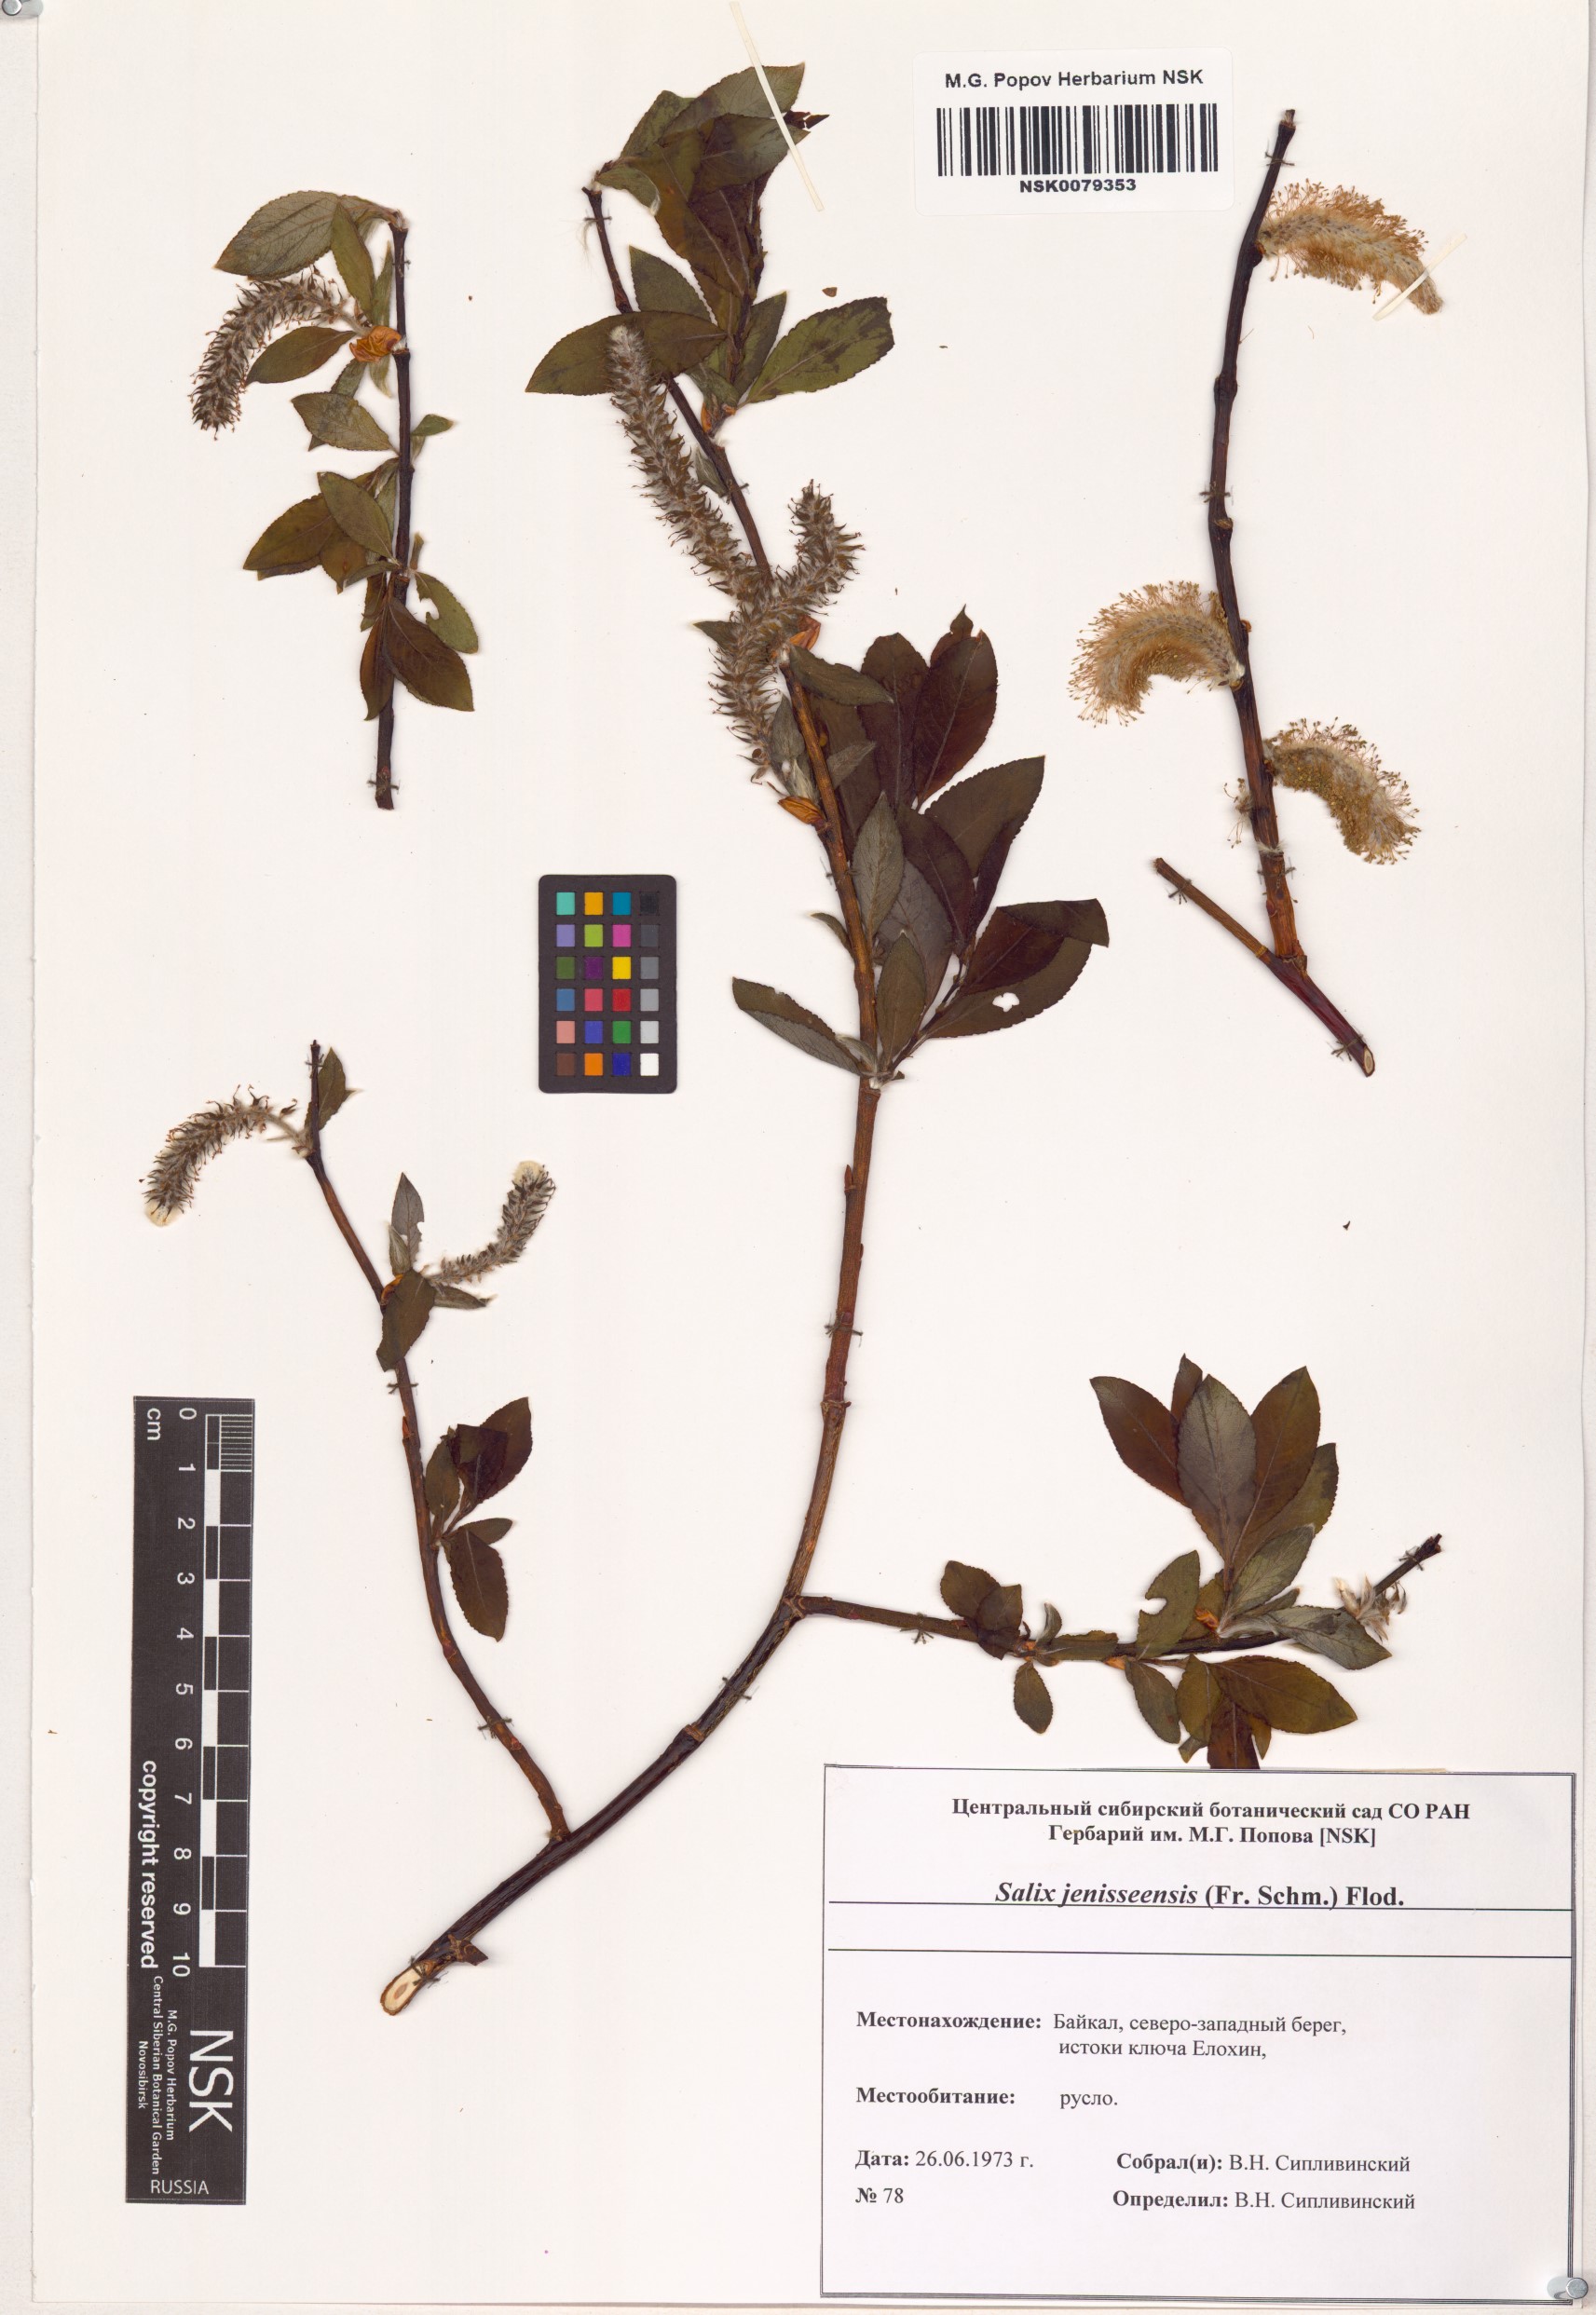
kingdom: Plantae
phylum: Tracheophyta
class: Magnoliopsida
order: Malpighiales
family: Salicaceae
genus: Salix
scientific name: Salix jenisseensis
